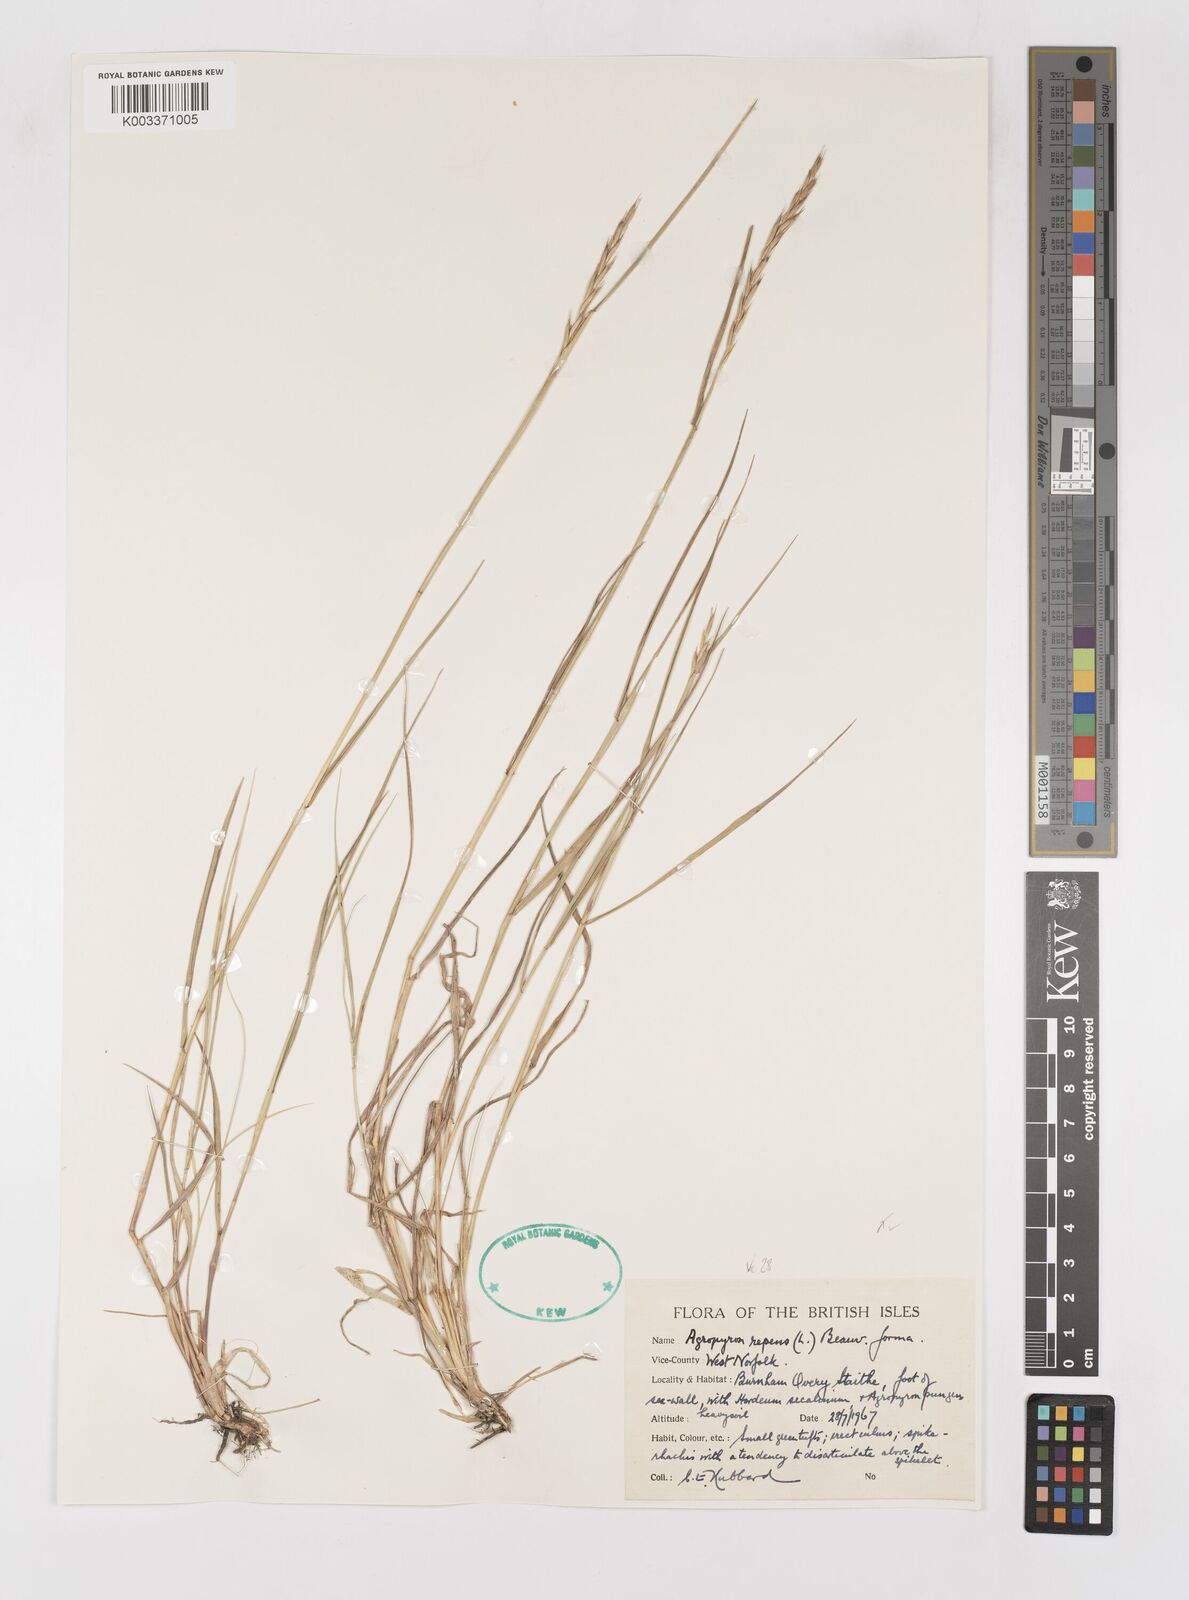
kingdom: Plantae
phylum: Tracheophyta
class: Liliopsida
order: Poales
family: Poaceae
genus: Elymus
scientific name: Elymus repens
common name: Quackgrass
